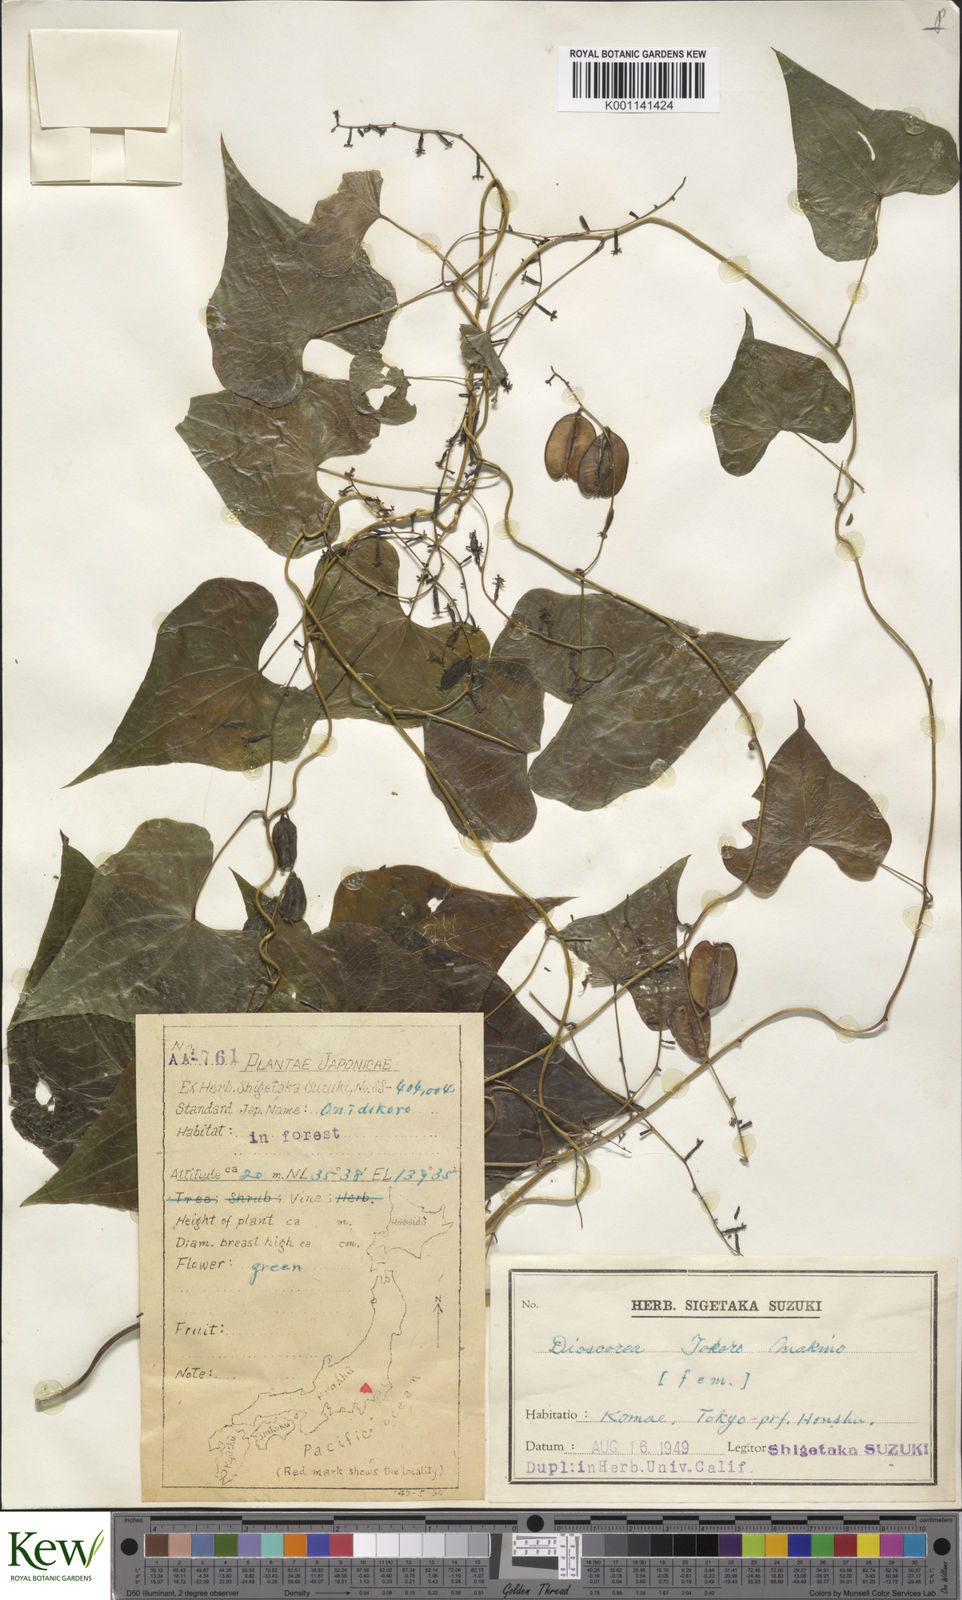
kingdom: Plantae
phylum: Tracheophyta
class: Liliopsida
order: Dioscoreales
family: Dioscoreaceae
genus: Dioscorea
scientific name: Dioscorea tokoro
